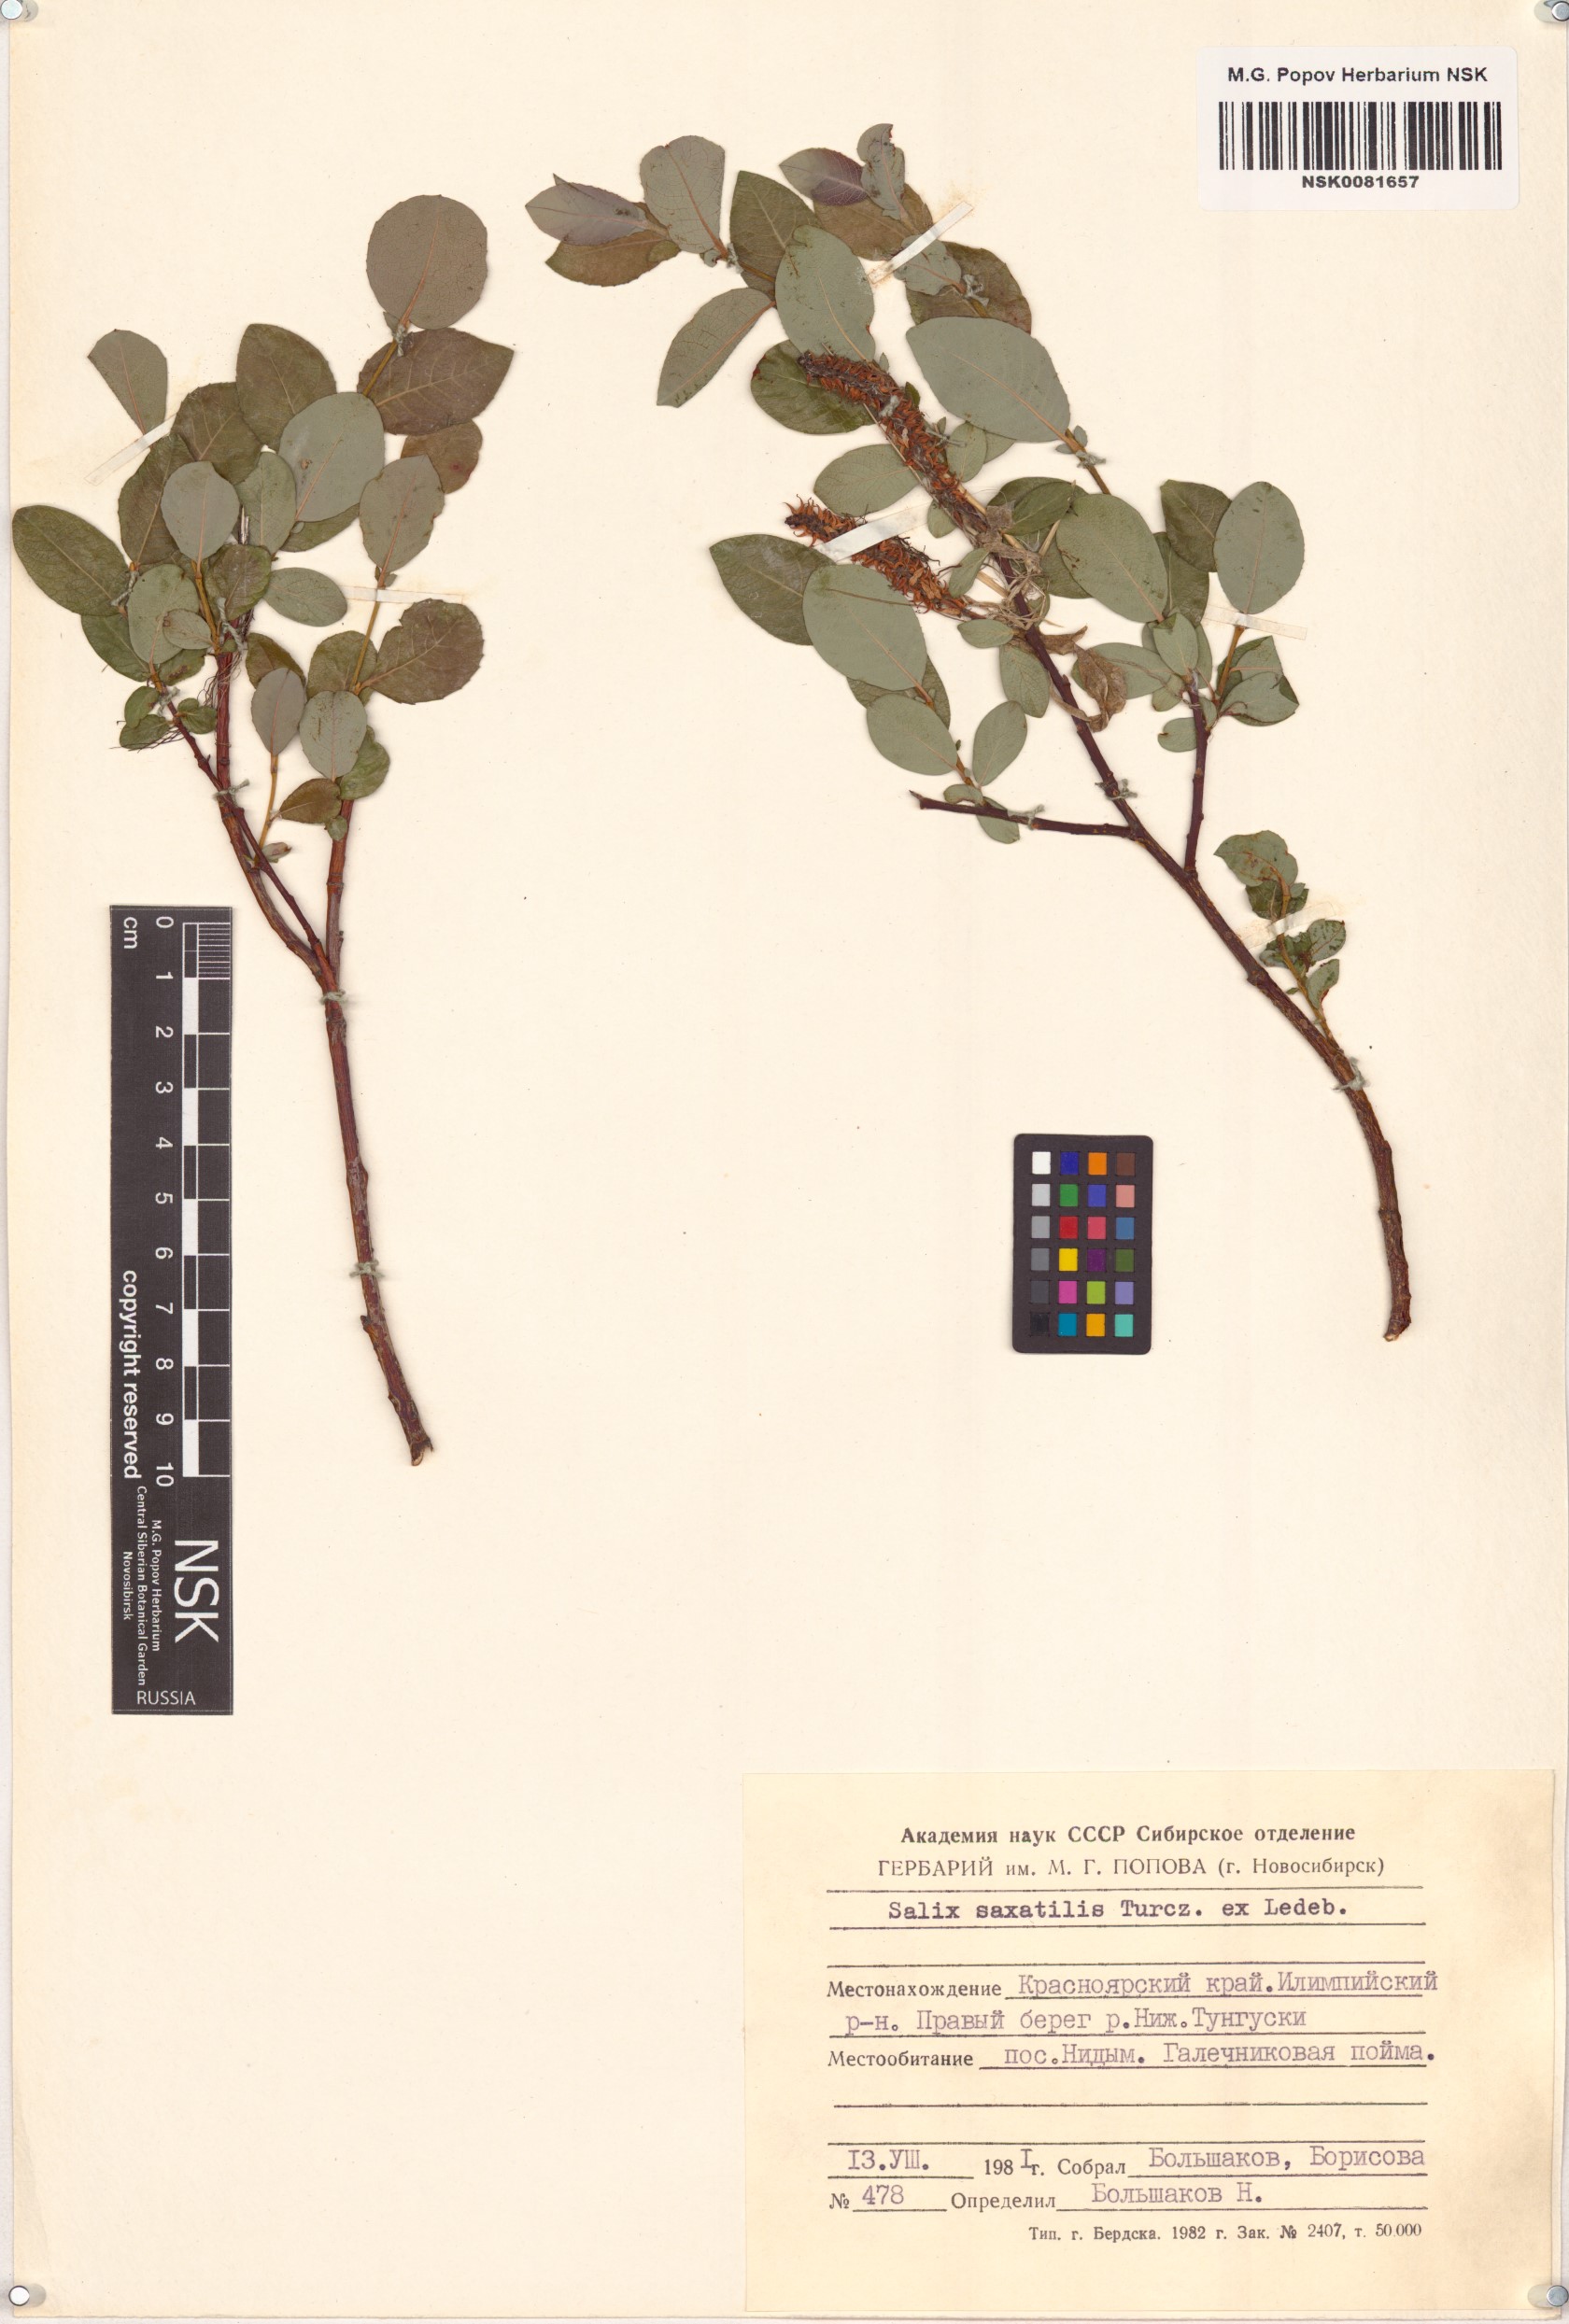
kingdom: Plantae
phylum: Tracheophyta
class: Magnoliopsida
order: Malpighiales
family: Salicaceae
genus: Salix
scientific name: Salix saxatilis
